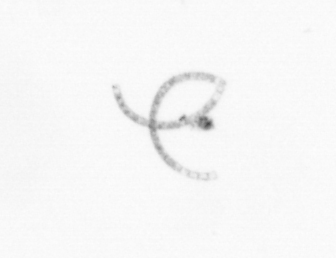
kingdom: Chromista
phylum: Ochrophyta
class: Bacillariophyceae
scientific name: Bacillariophyceae
